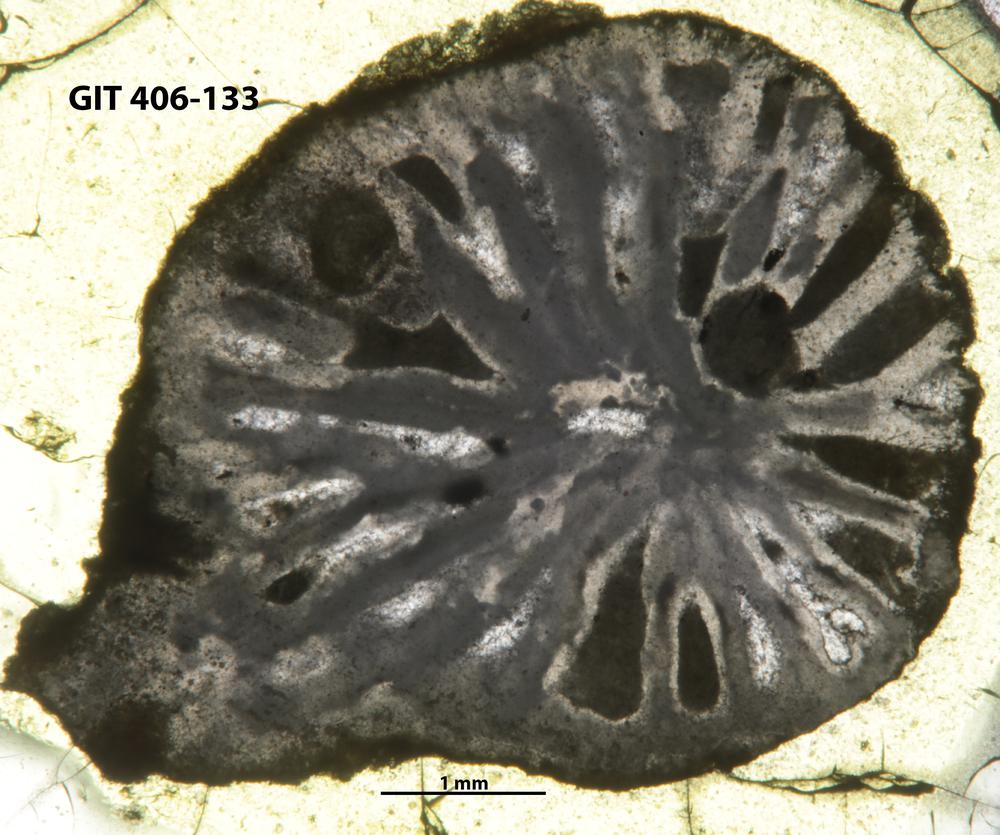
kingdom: Animalia
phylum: Cnidaria
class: Anthozoa
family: Kodonophyllidae
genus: Kodonophyllum
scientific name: Kodonophyllum
